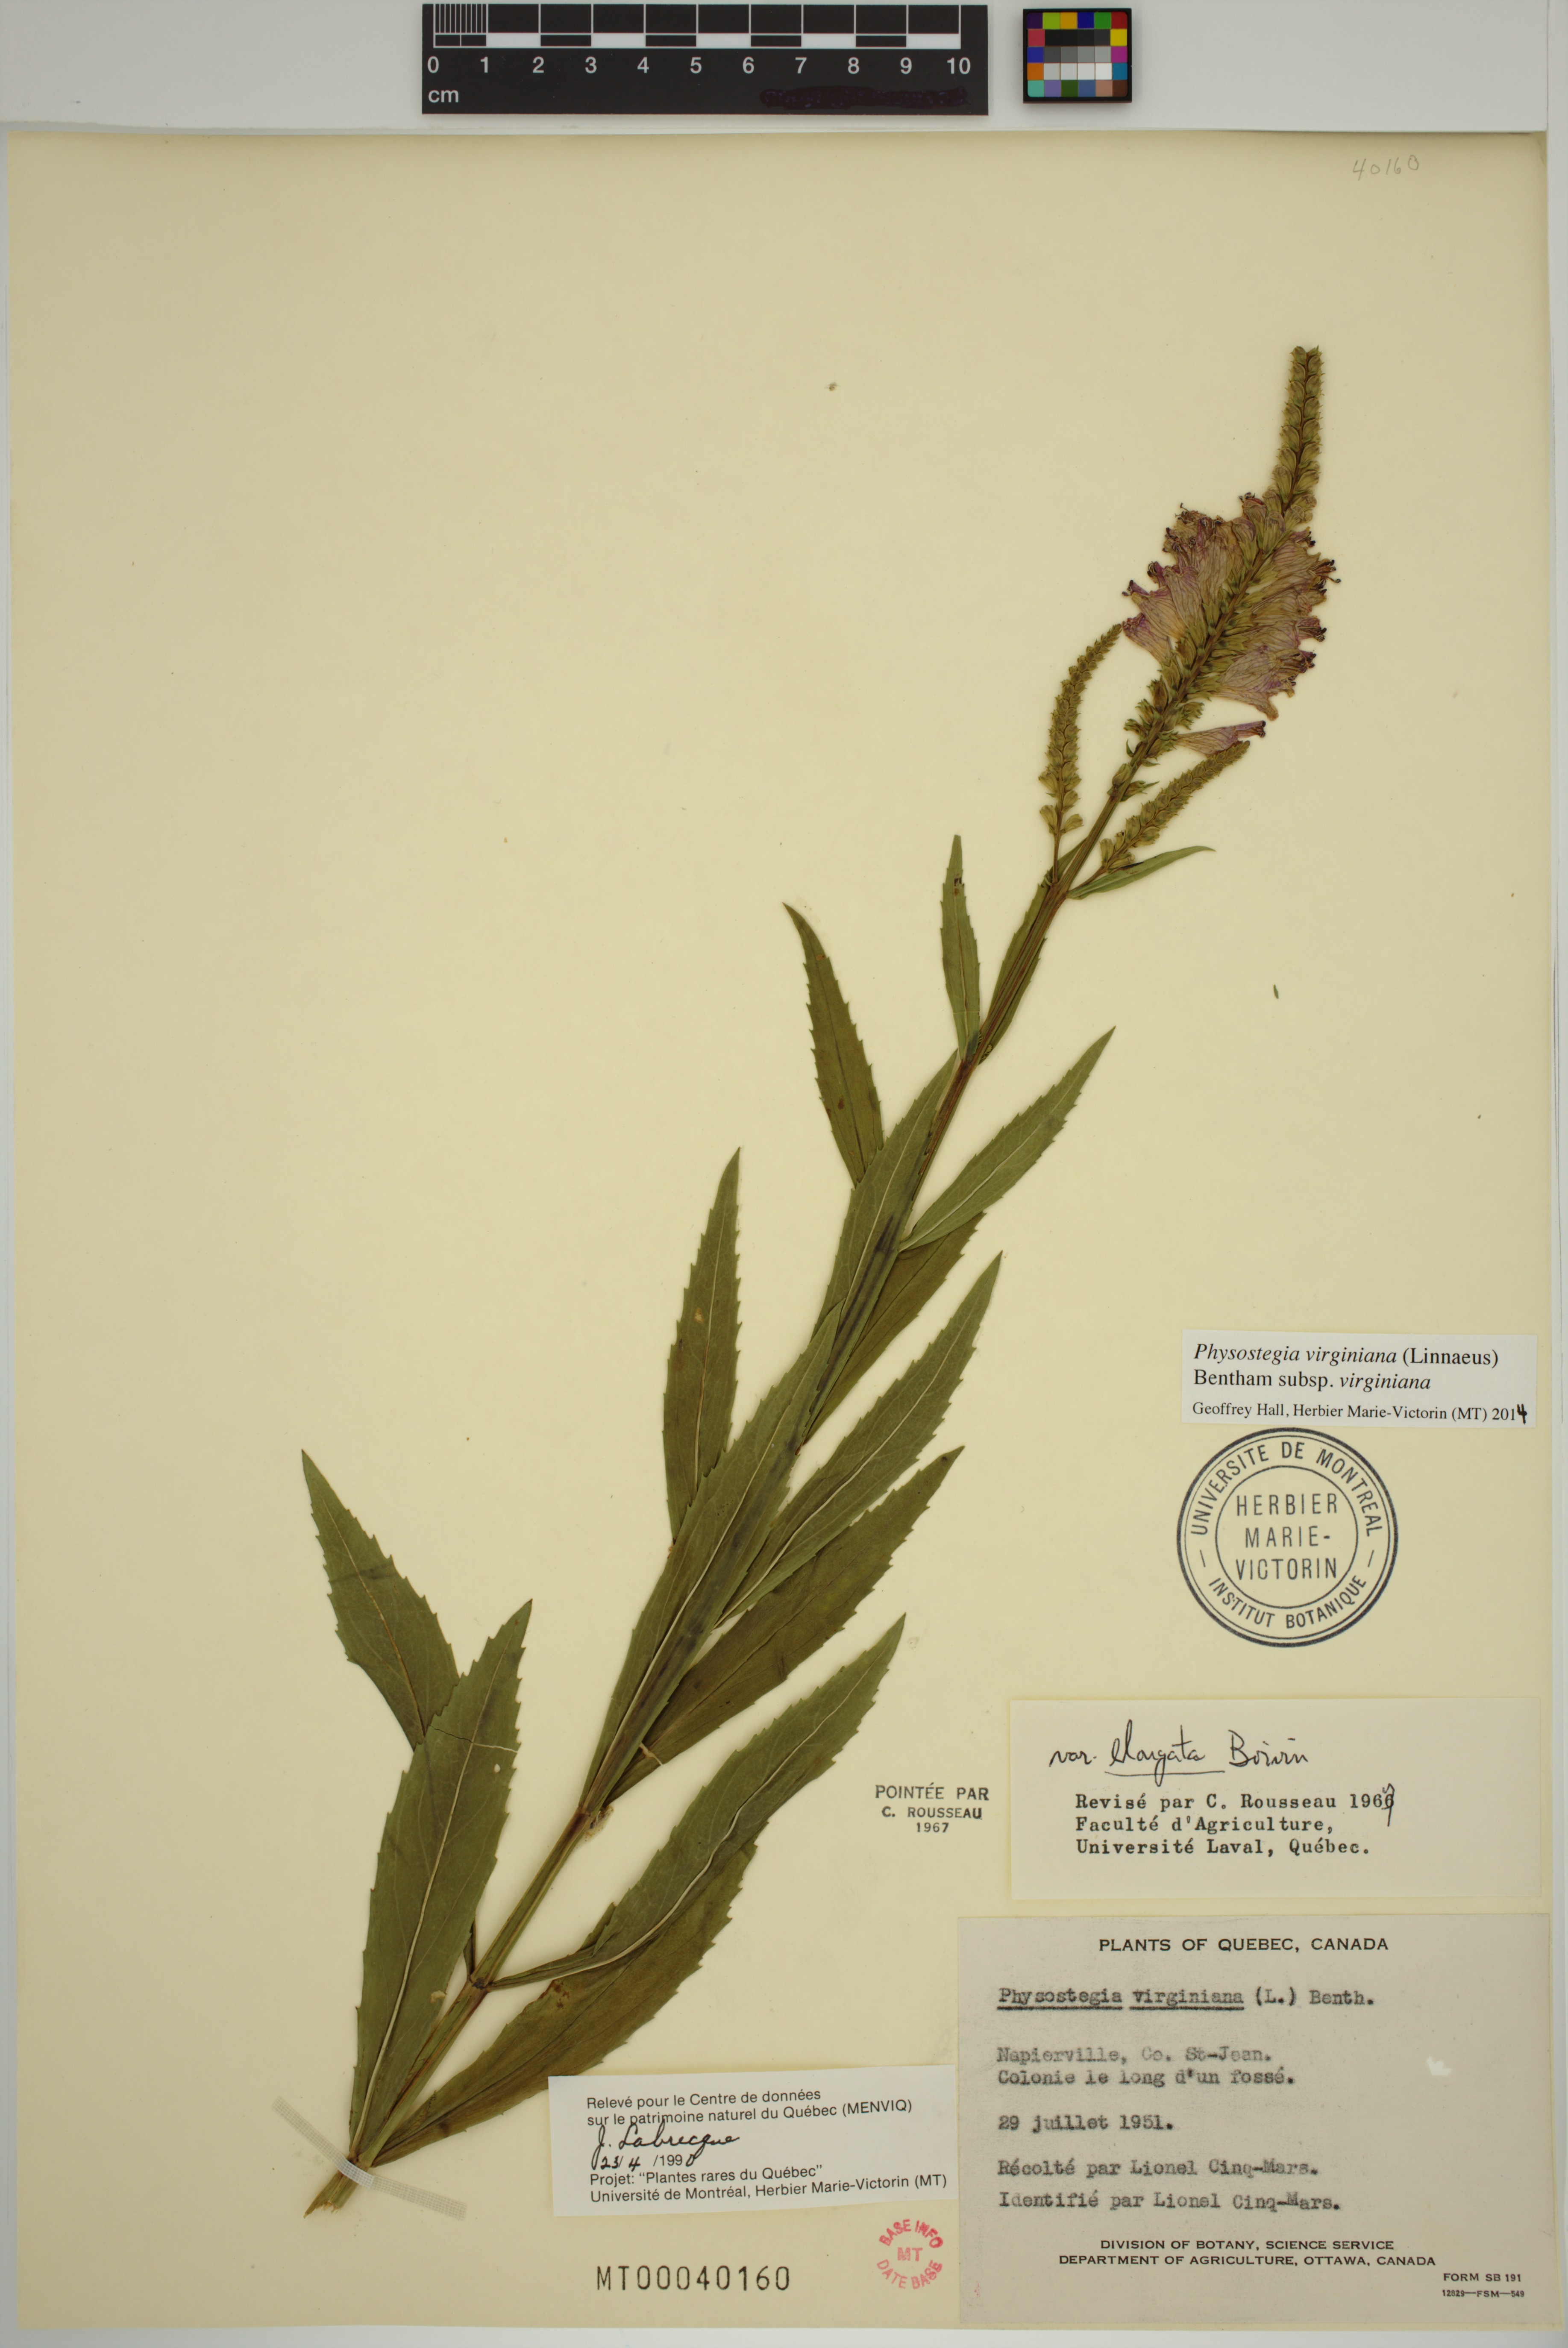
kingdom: Plantae
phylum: Tracheophyta
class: Magnoliopsida
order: Lamiales
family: Lamiaceae
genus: Physostegia
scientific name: Physostegia virginiana
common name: Obedient-plant
